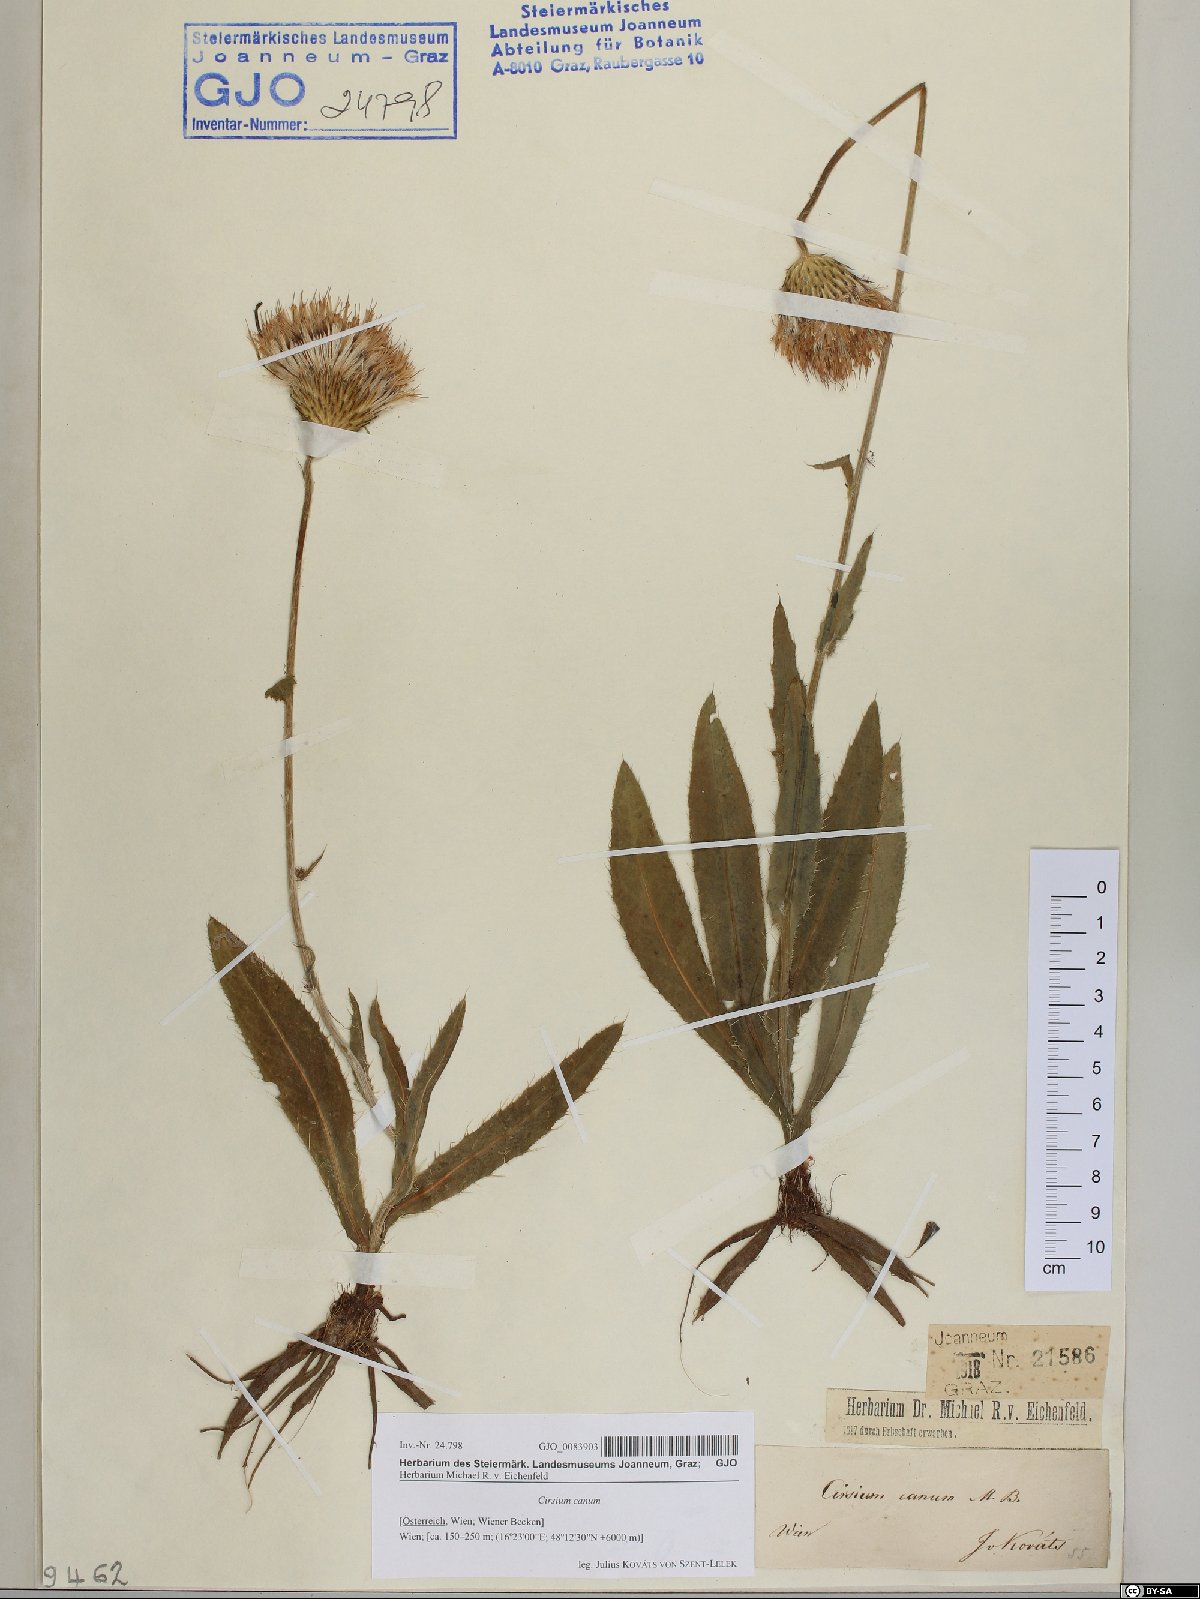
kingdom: Plantae
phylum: Tracheophyta
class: Magnoliopsida
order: Asterales
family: Asteraceae
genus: Cirsium
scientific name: Cirsium canum
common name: Queen anne's thistle
